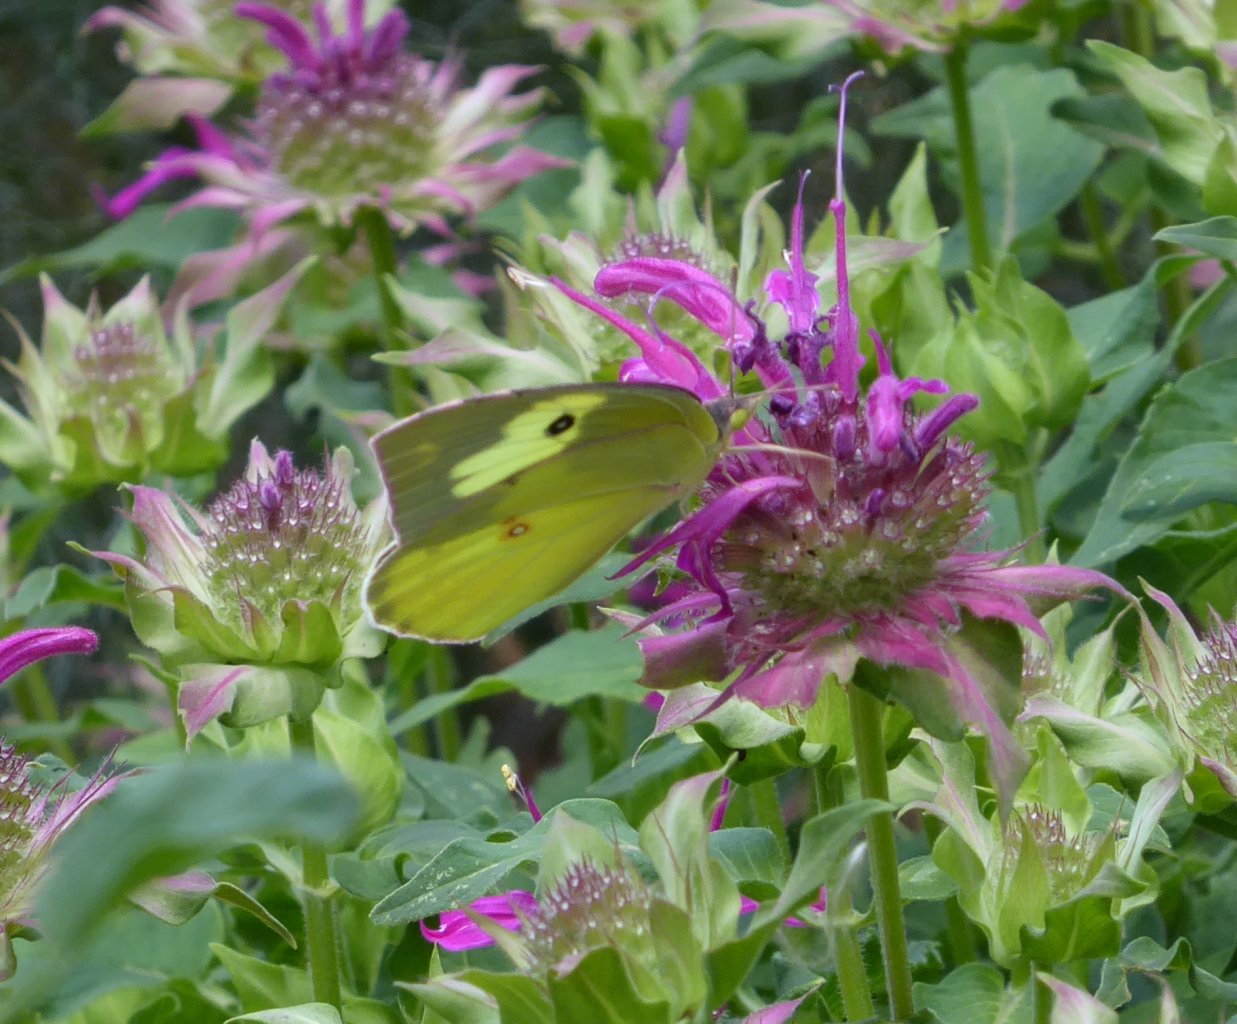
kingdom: Animalia
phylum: Arthropoda
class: Insecta
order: Lepidoptera
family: Pieridae
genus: Zerene
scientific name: Zerene cesonia
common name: Southern Dogface
